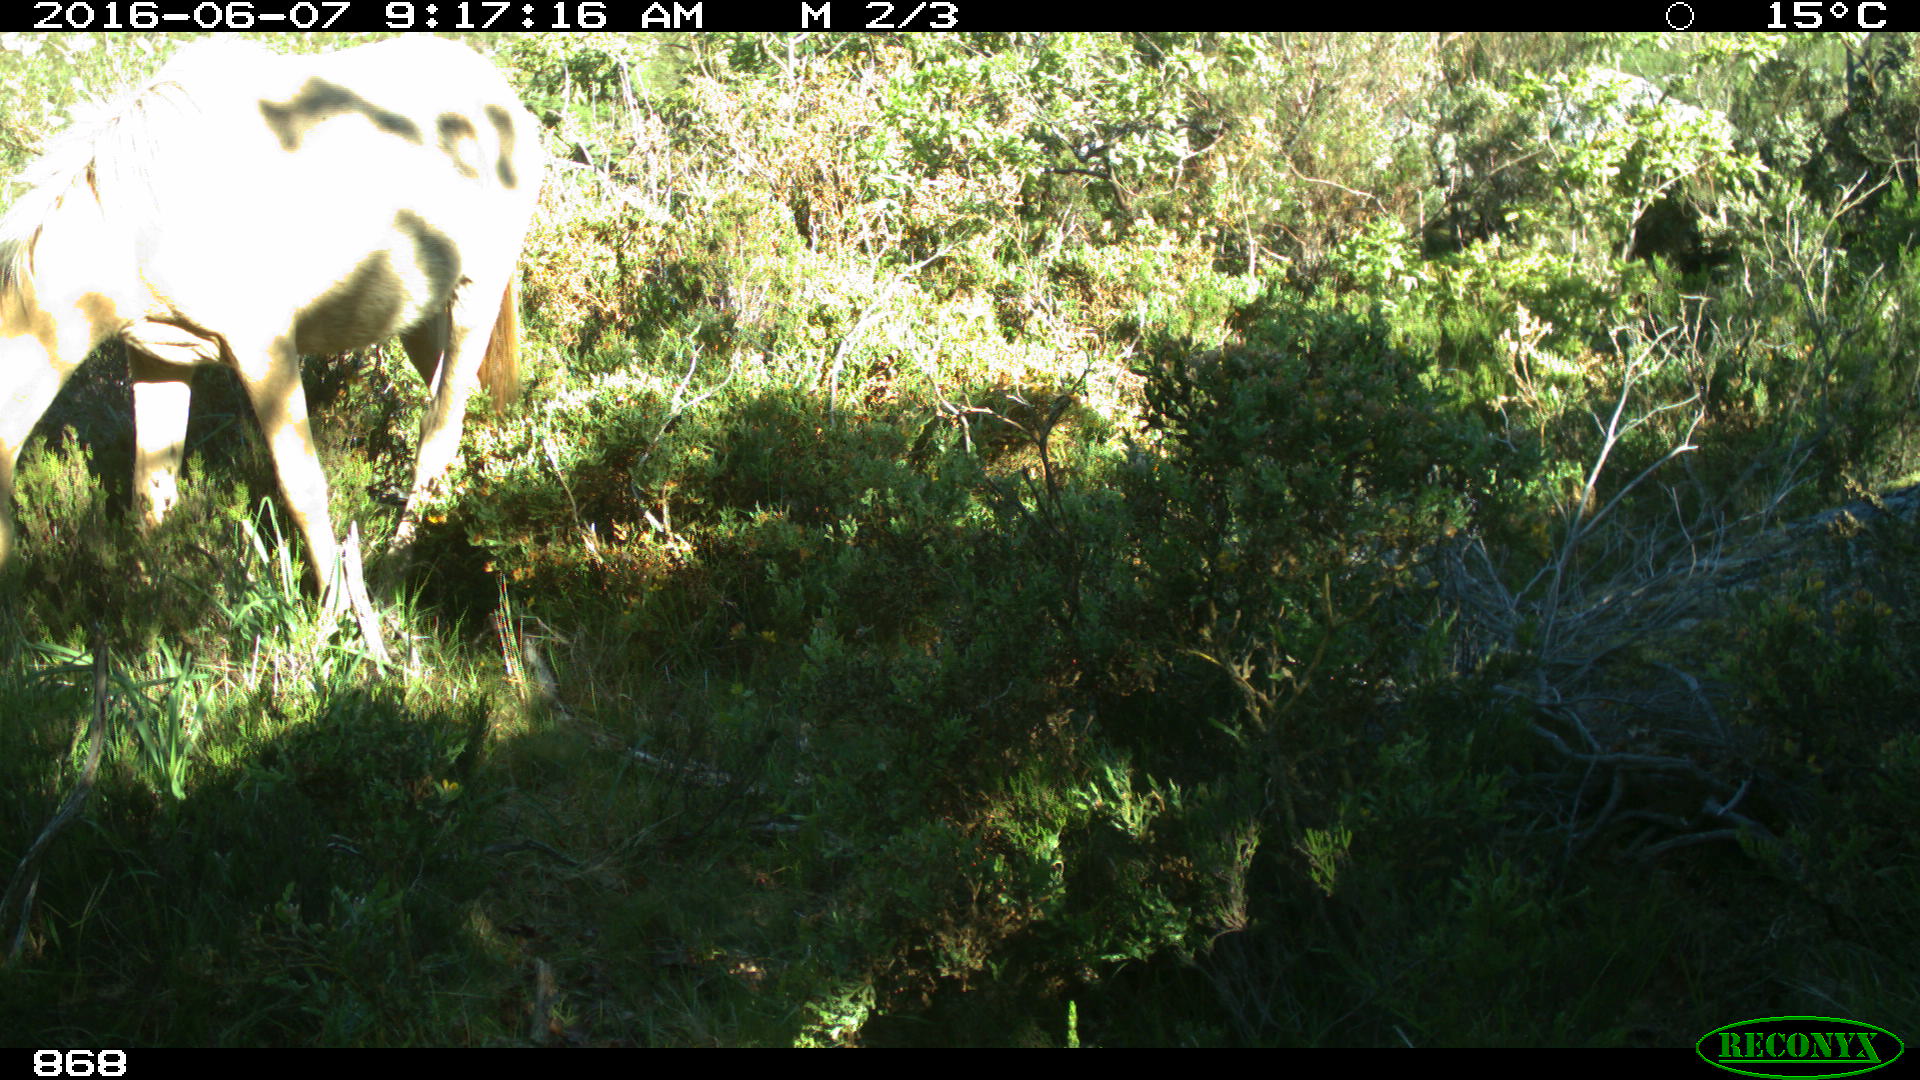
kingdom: Animalia
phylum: Chordata
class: Mammalia
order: Perissodactyla
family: Equidae
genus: Equus
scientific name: Equus caballus
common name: Horse
